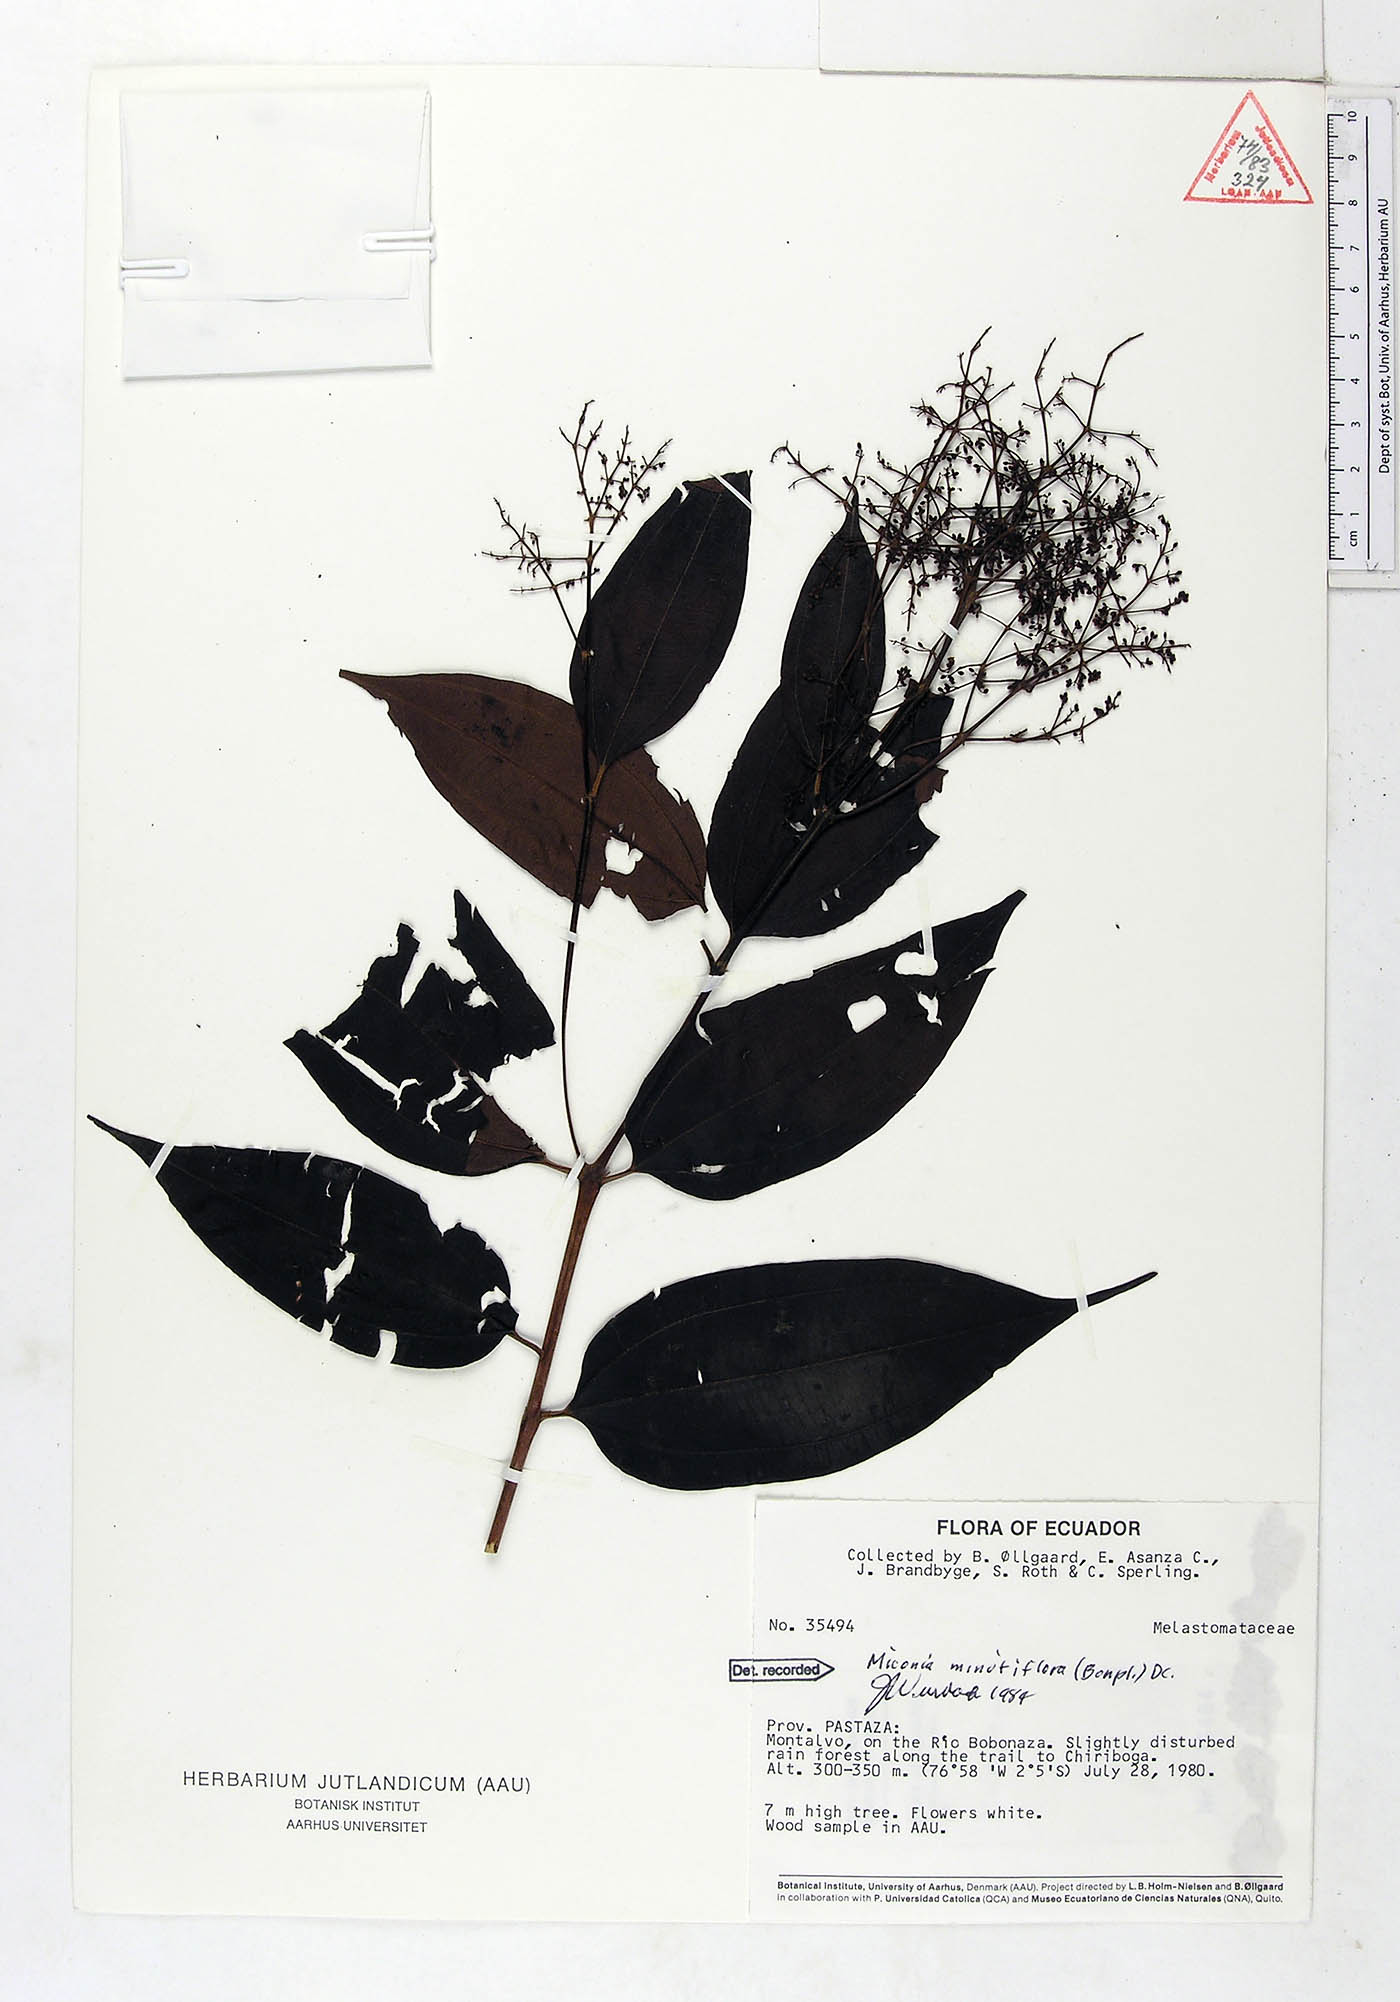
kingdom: Plantae
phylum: Tracheophyta
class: Magnoliopsida
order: Myrtales
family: Melastomataceae
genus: Miconia
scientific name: Miconia minutiflora
